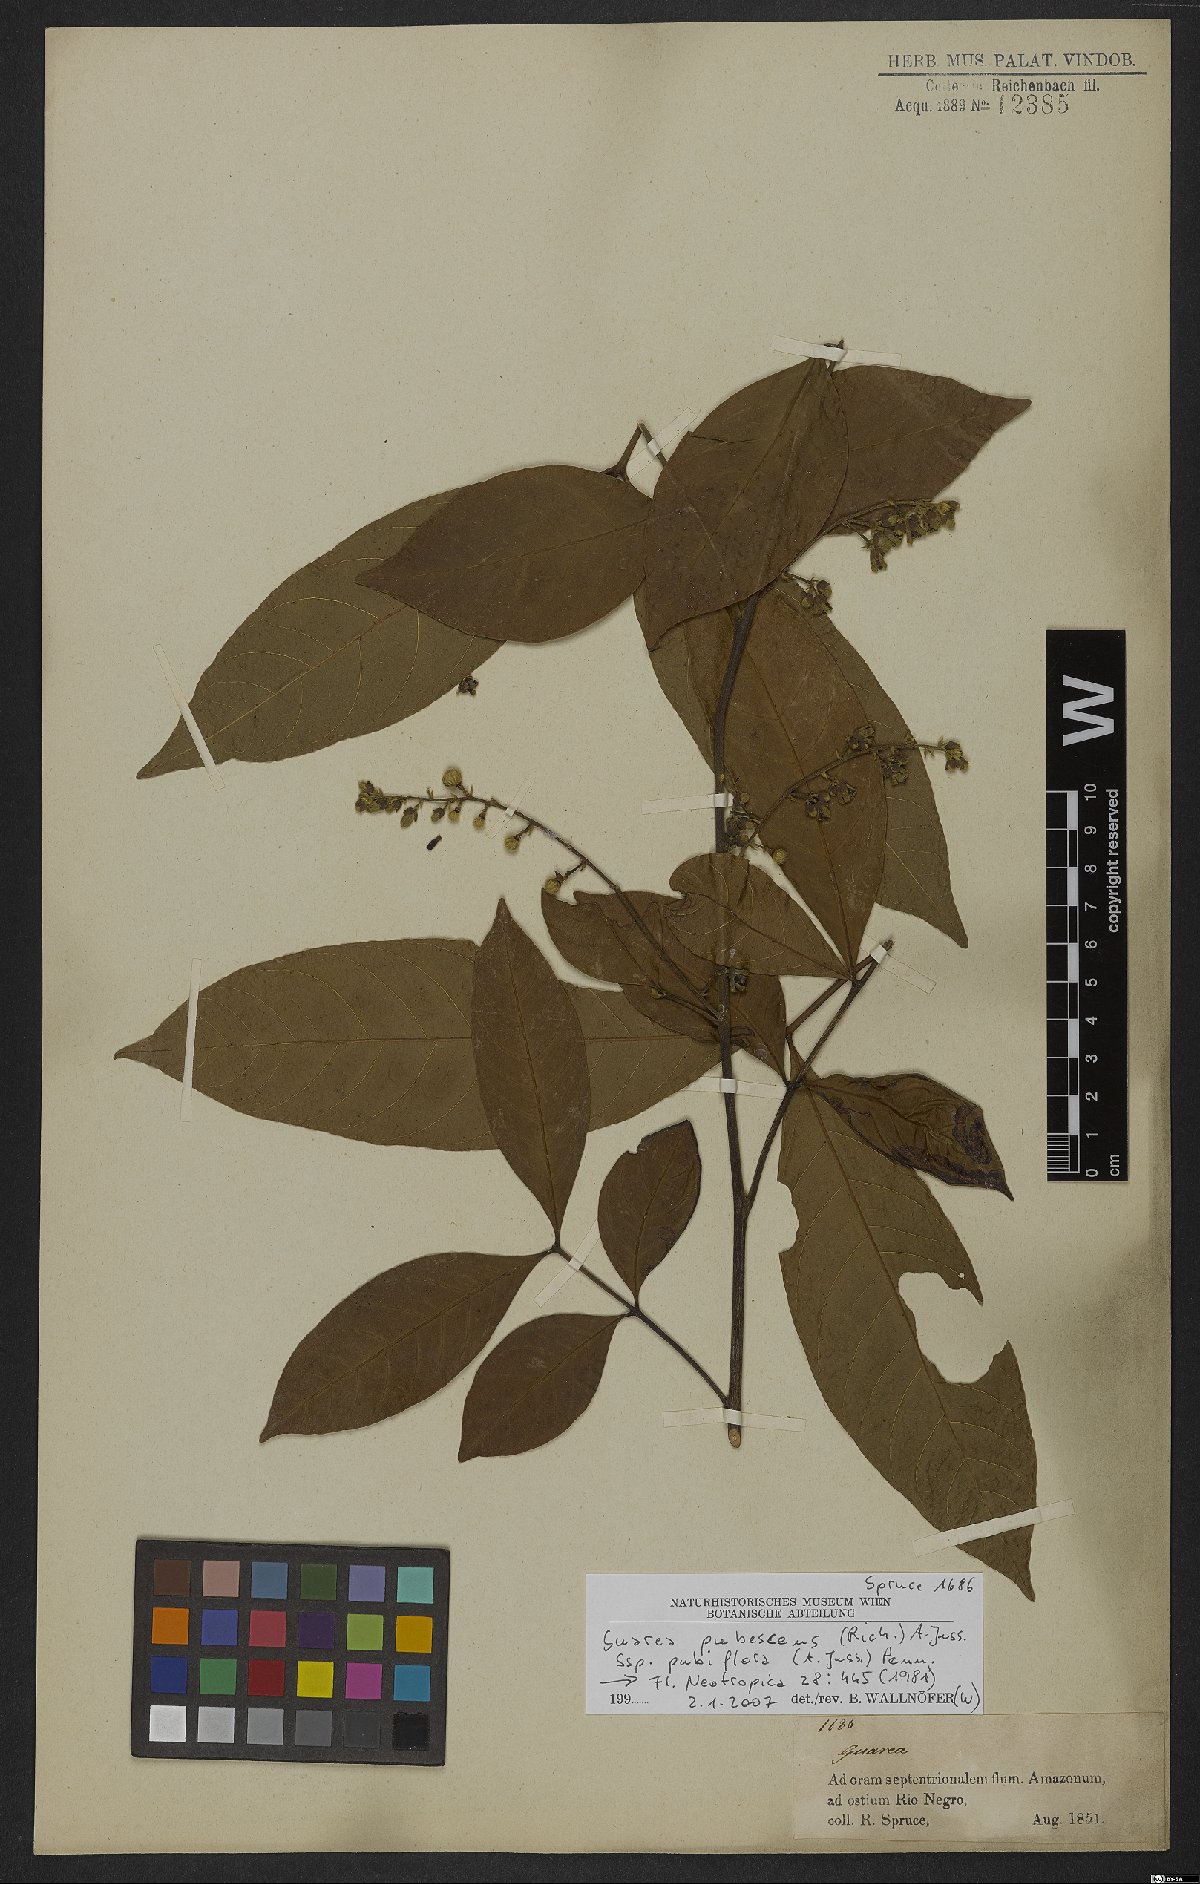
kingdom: Plantae
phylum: Tracheophyta
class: Magnoliopsida
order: Sapindales
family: Meliaceae
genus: Guarea
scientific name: Guarea pubescens
